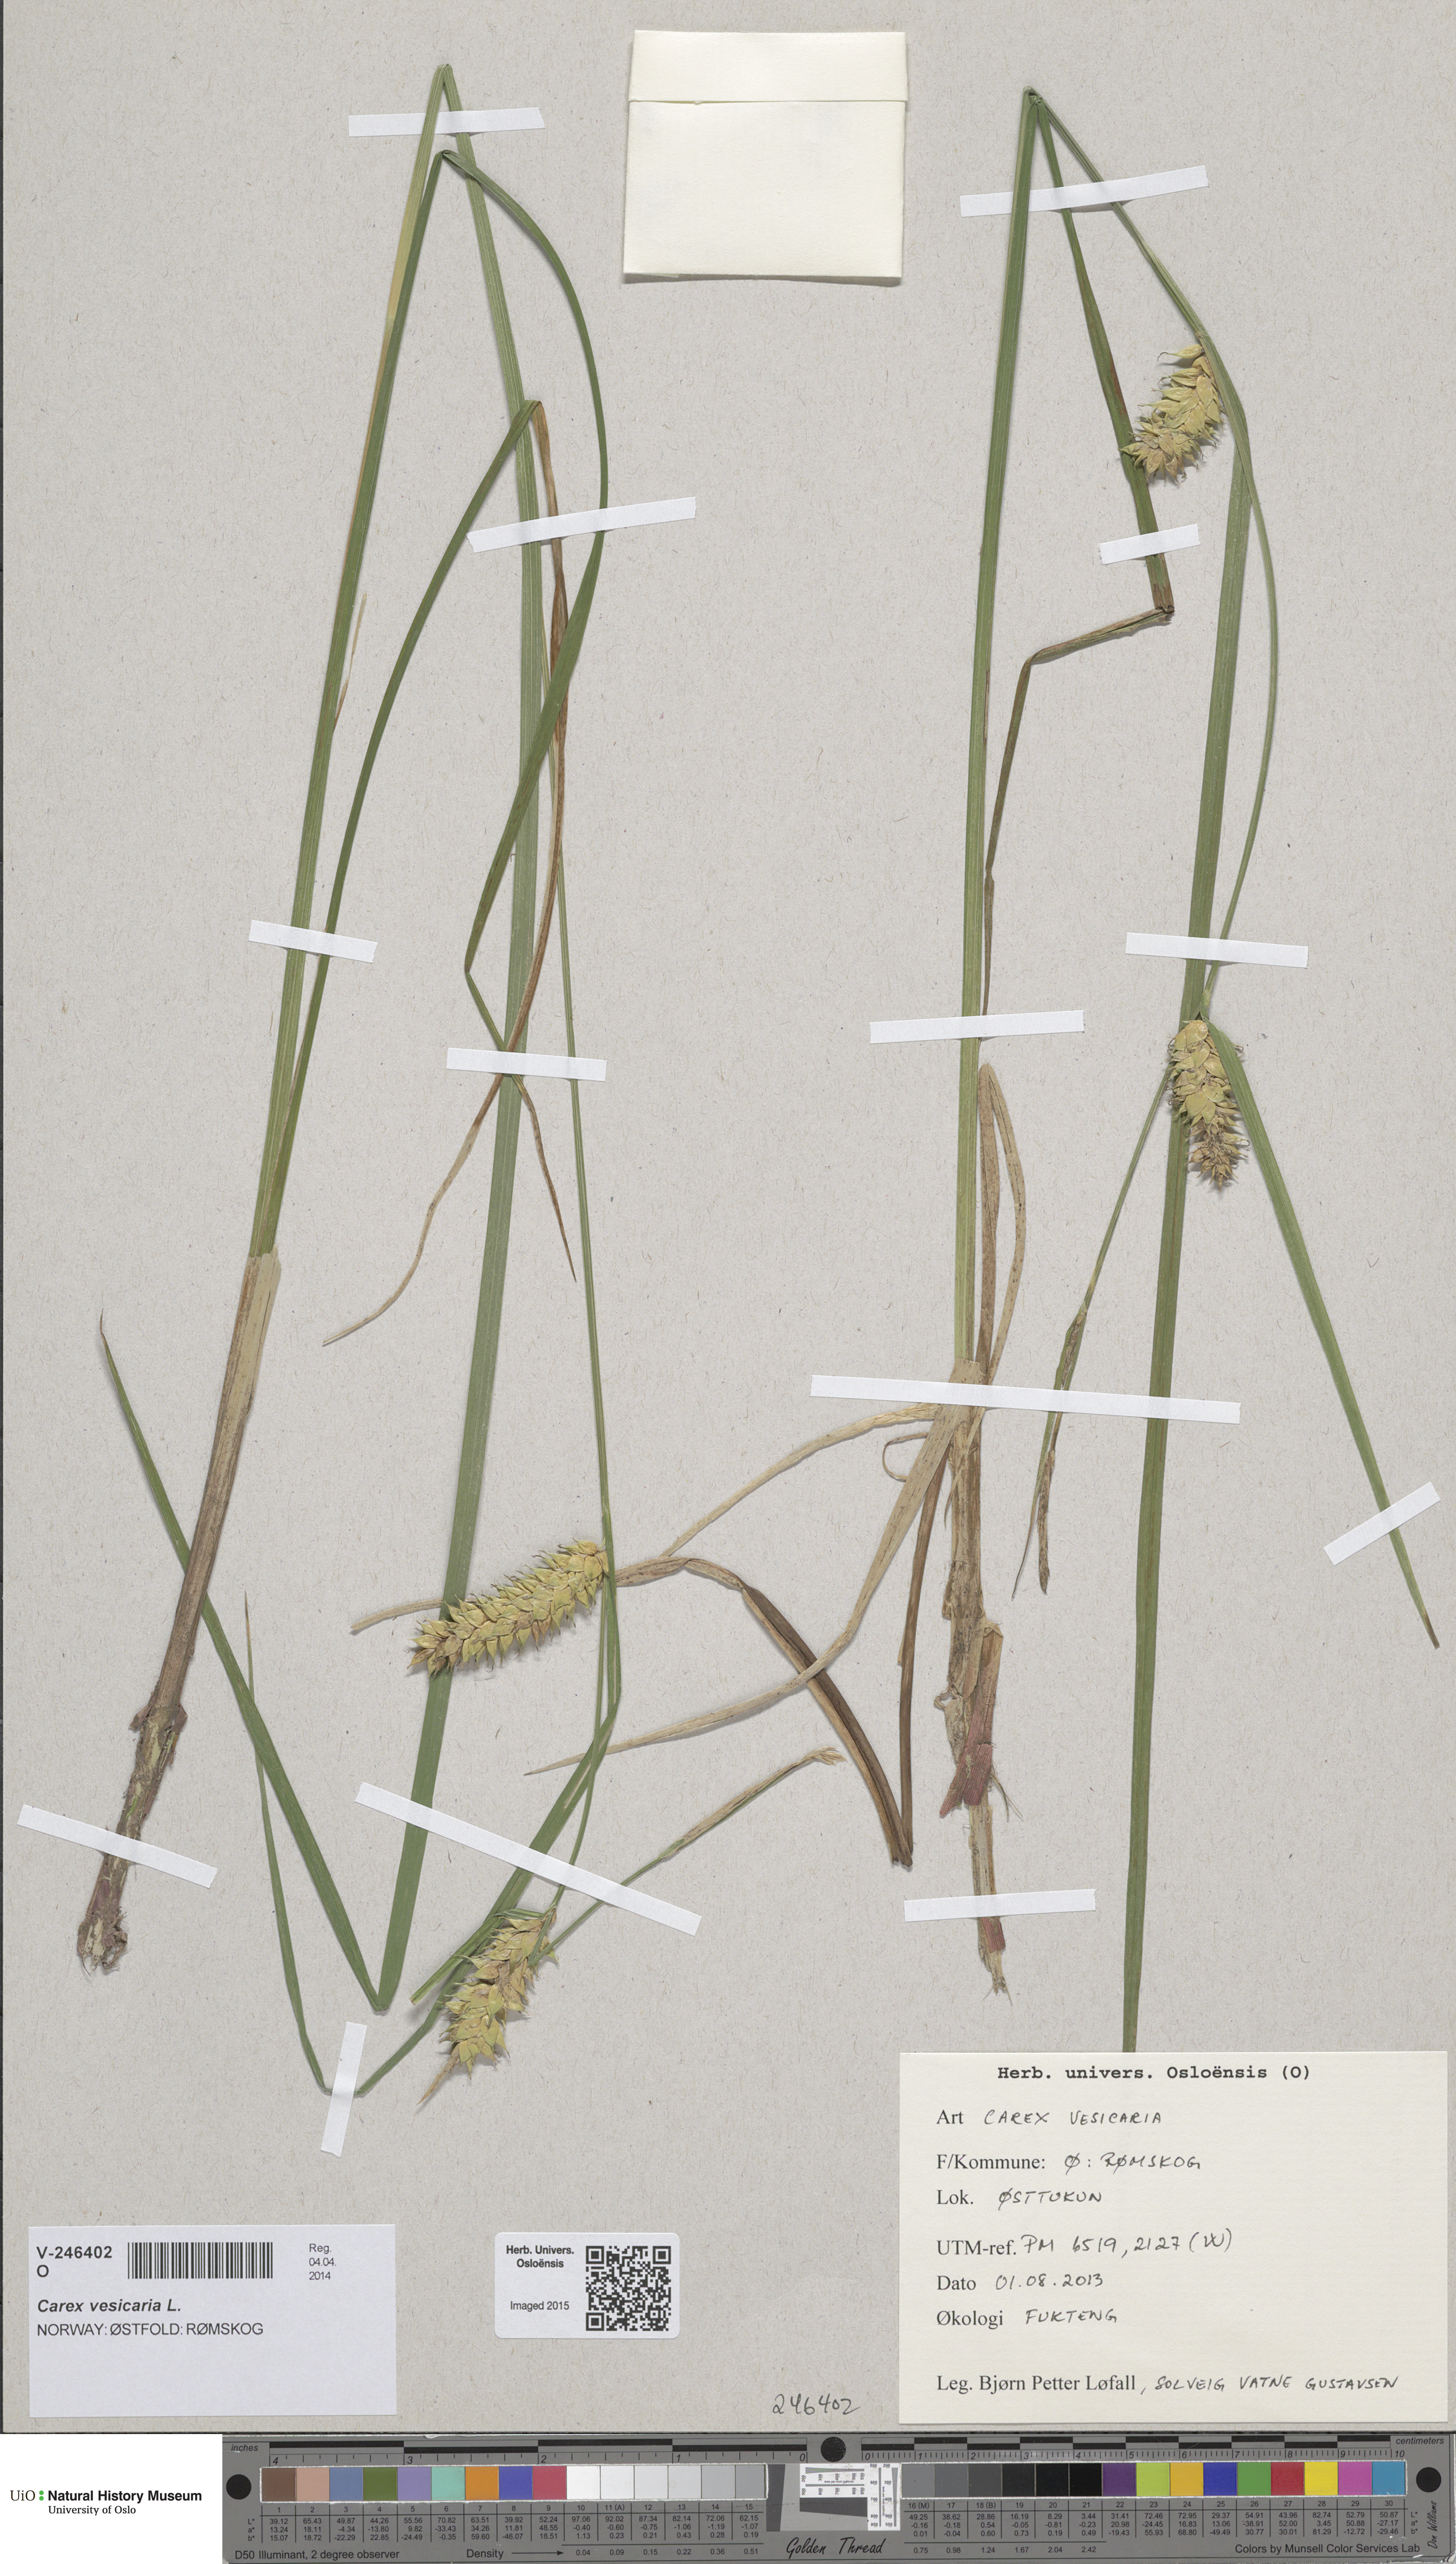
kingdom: Plantae
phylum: Tracheophyta
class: Liliopsida
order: Poales
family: Cyperaceae
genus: Carex
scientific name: Carex vesicaria
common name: Bladder-sedge
